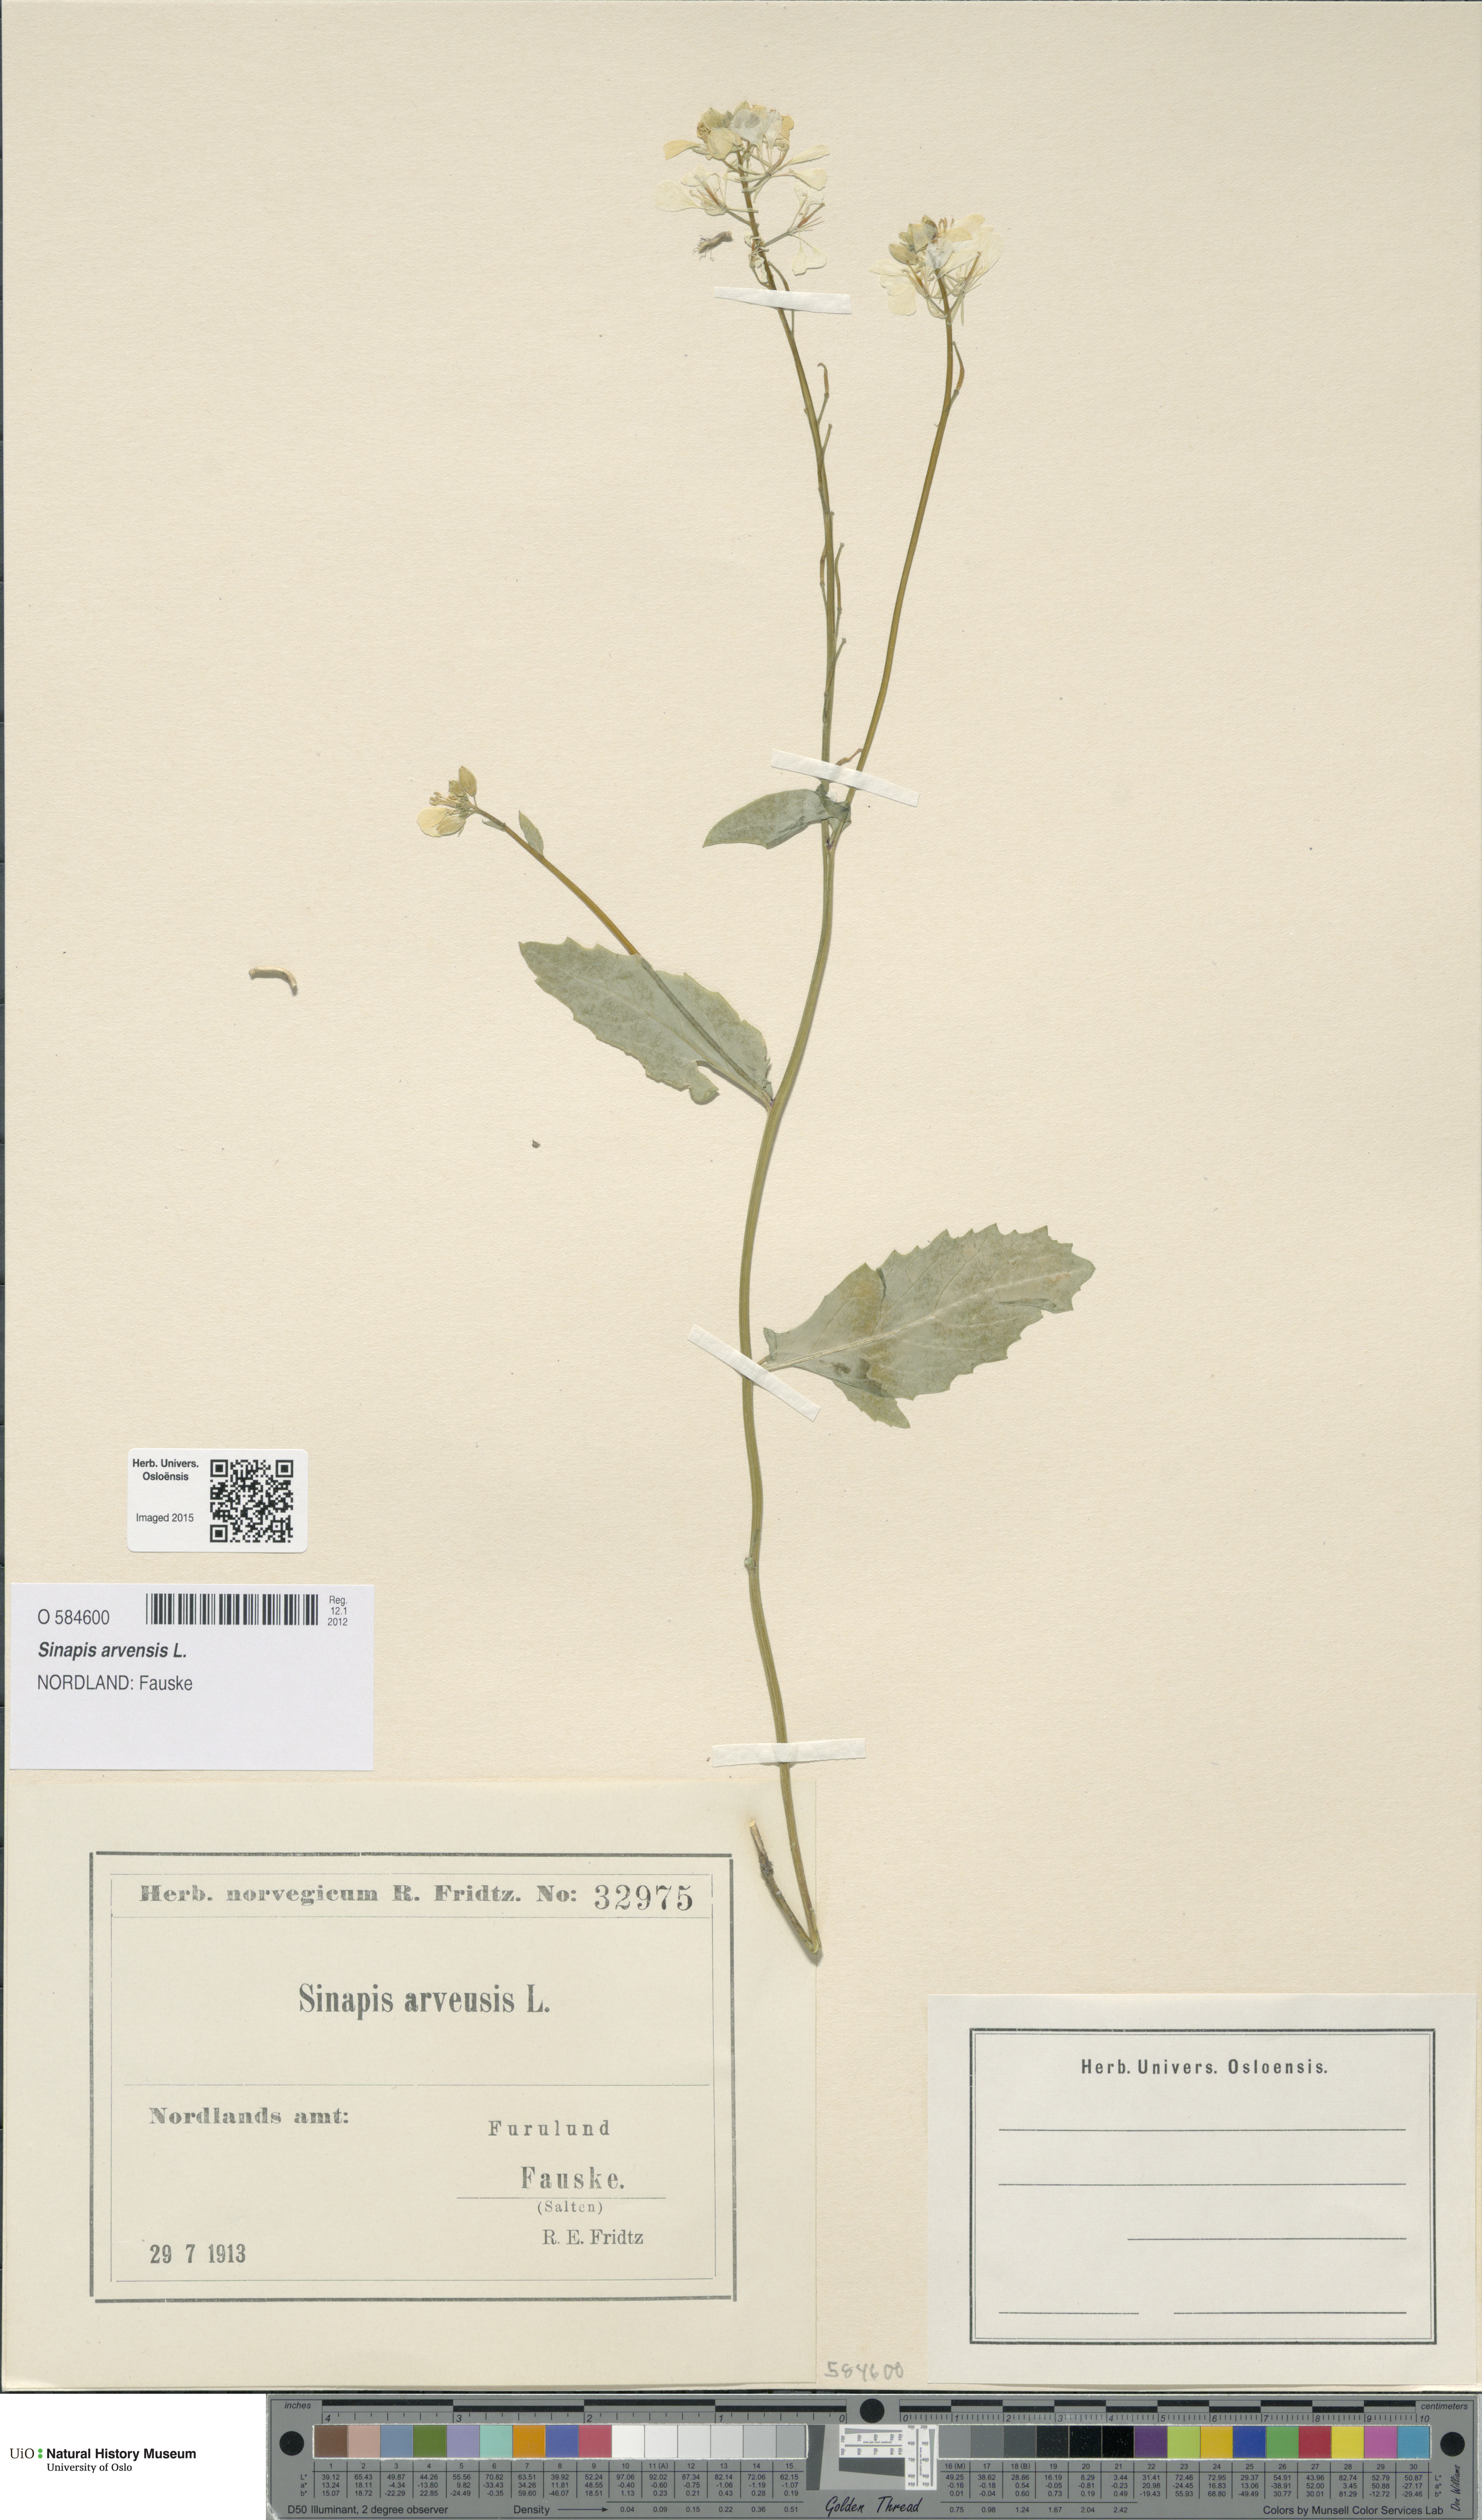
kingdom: Plantae
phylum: Tracheophyta
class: Magnoliopsida
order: Brassicales
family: Brassicaceae
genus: Sinapis
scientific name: Sinapis arvensis
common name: Charlock
